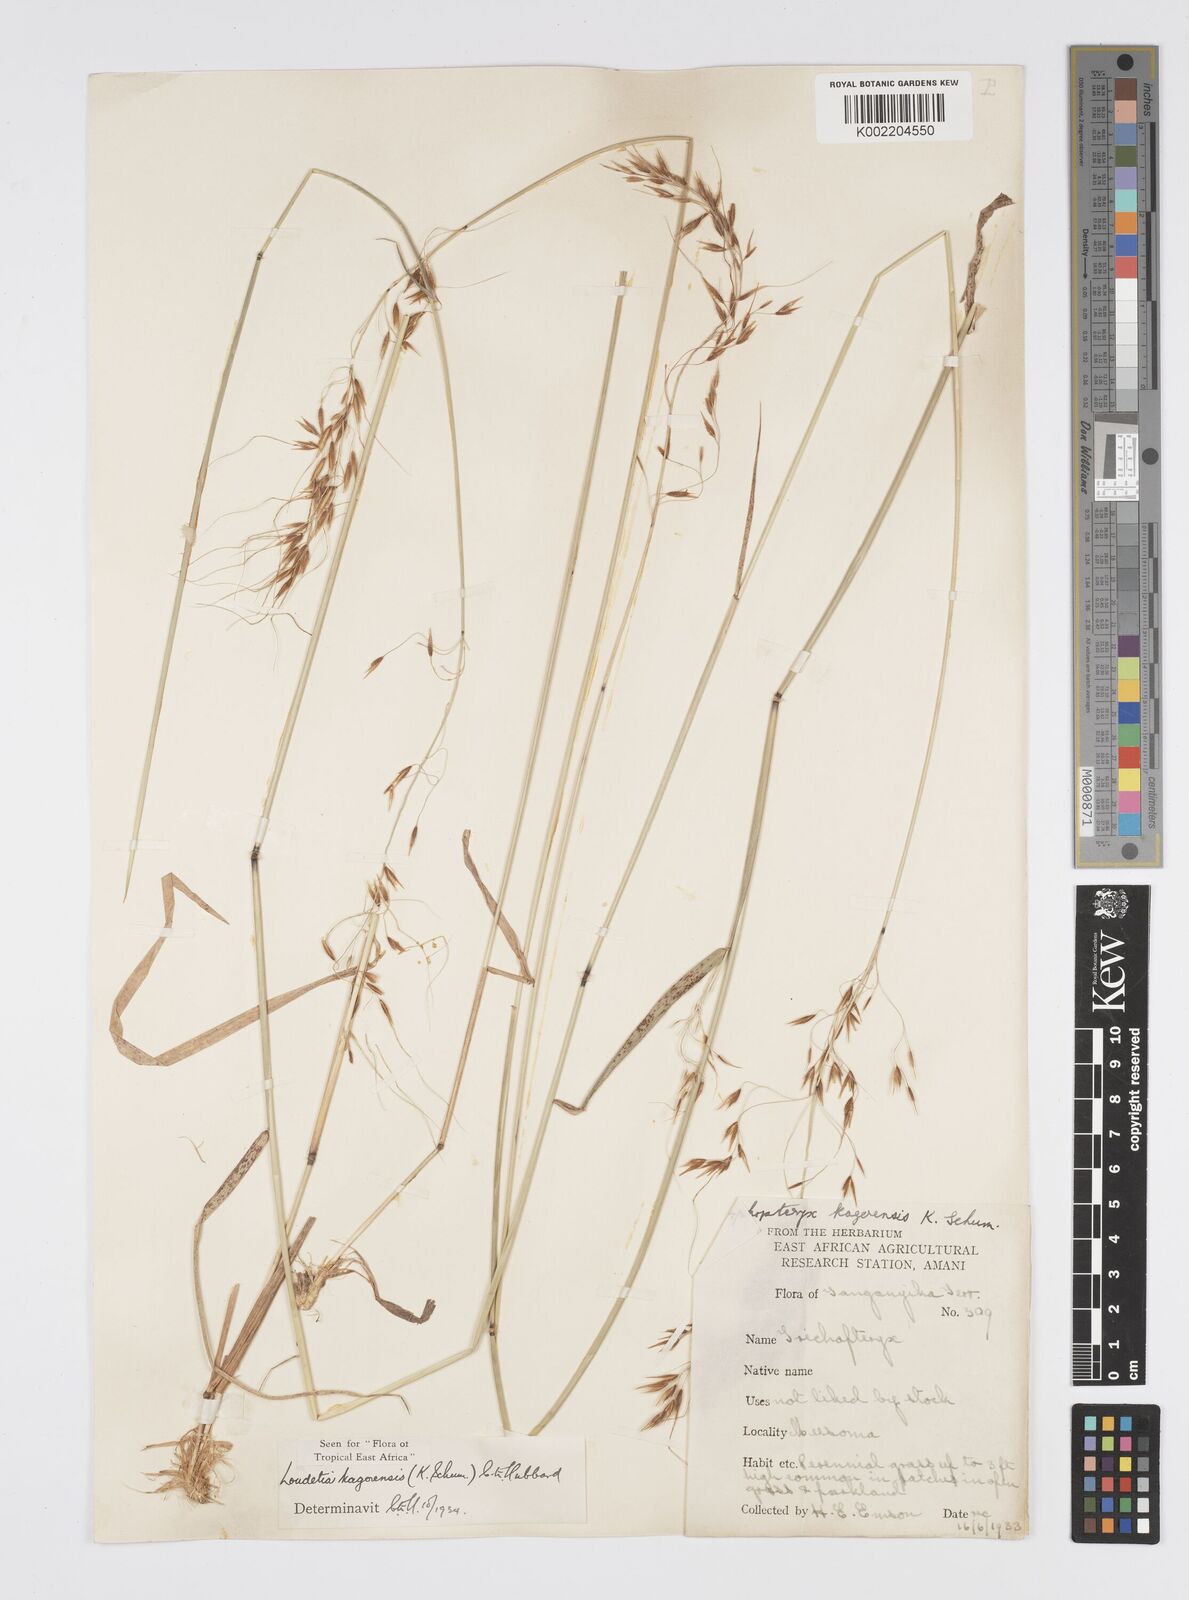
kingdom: Plantae
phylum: Tracheophyta
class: Liliopsida
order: Poales
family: Poaceae
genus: Loudetia
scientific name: Loudetia kagerensis
